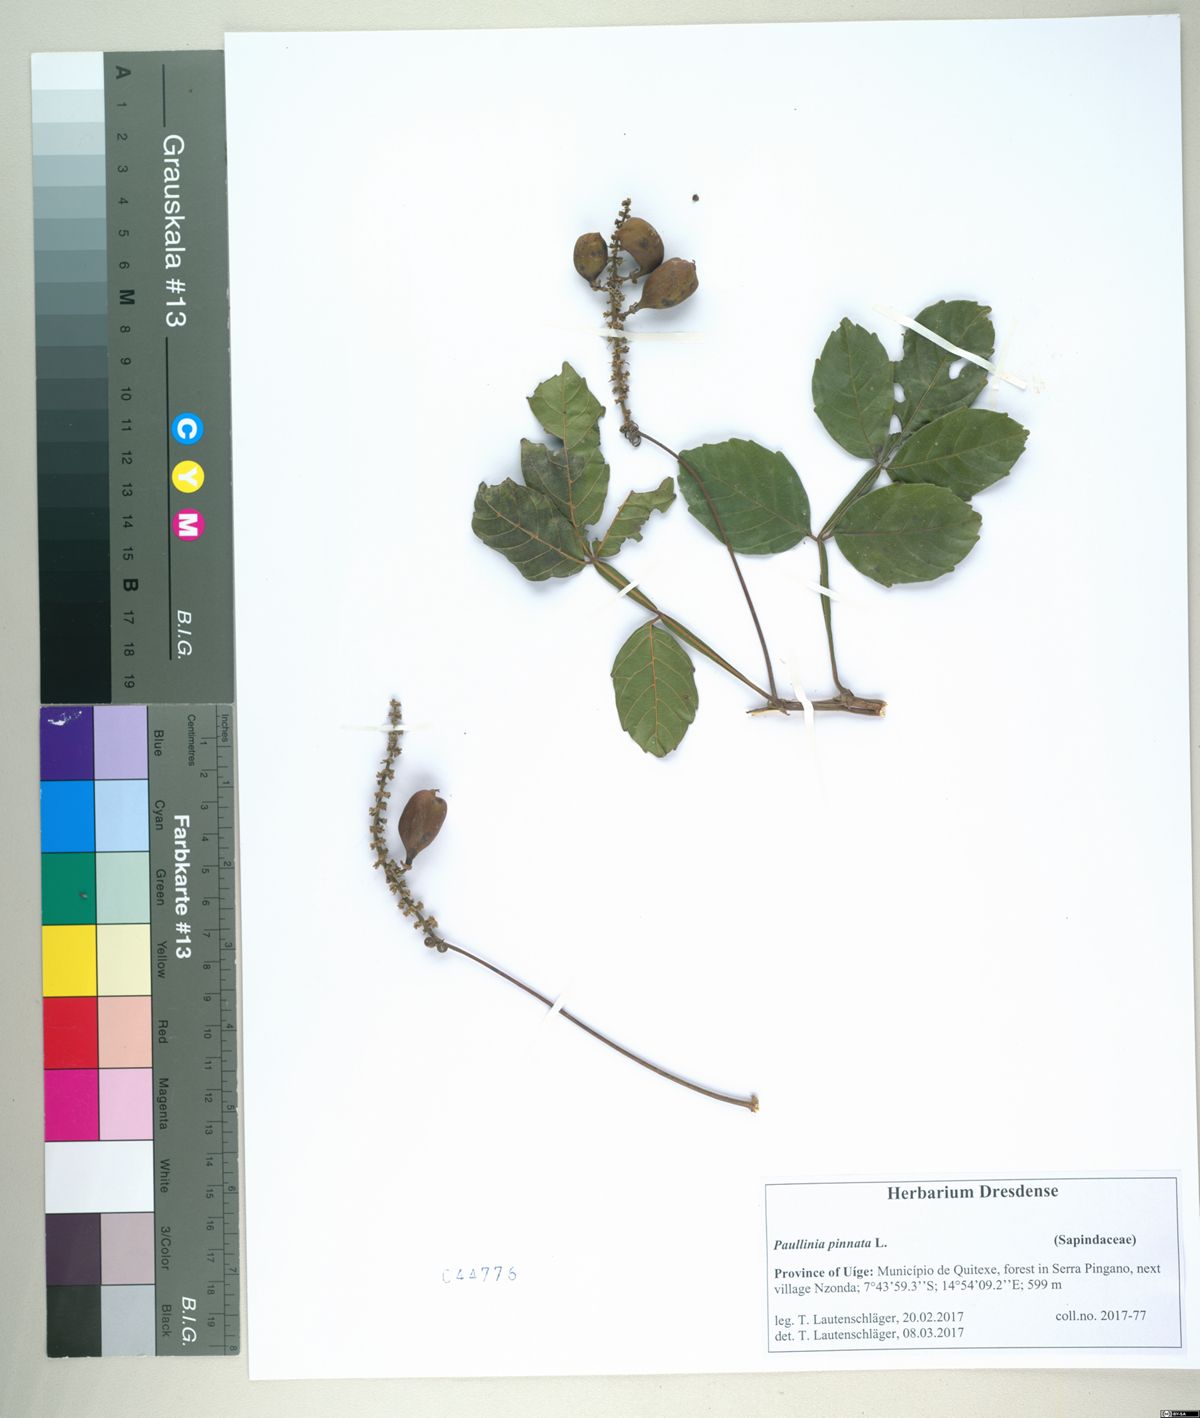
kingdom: Plantae
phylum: Tracheophyta
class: Magnoliopsida
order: Sapindales
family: Sapindaceae
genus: Paullinia
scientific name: Paullinia pinnata
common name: Barbasco
